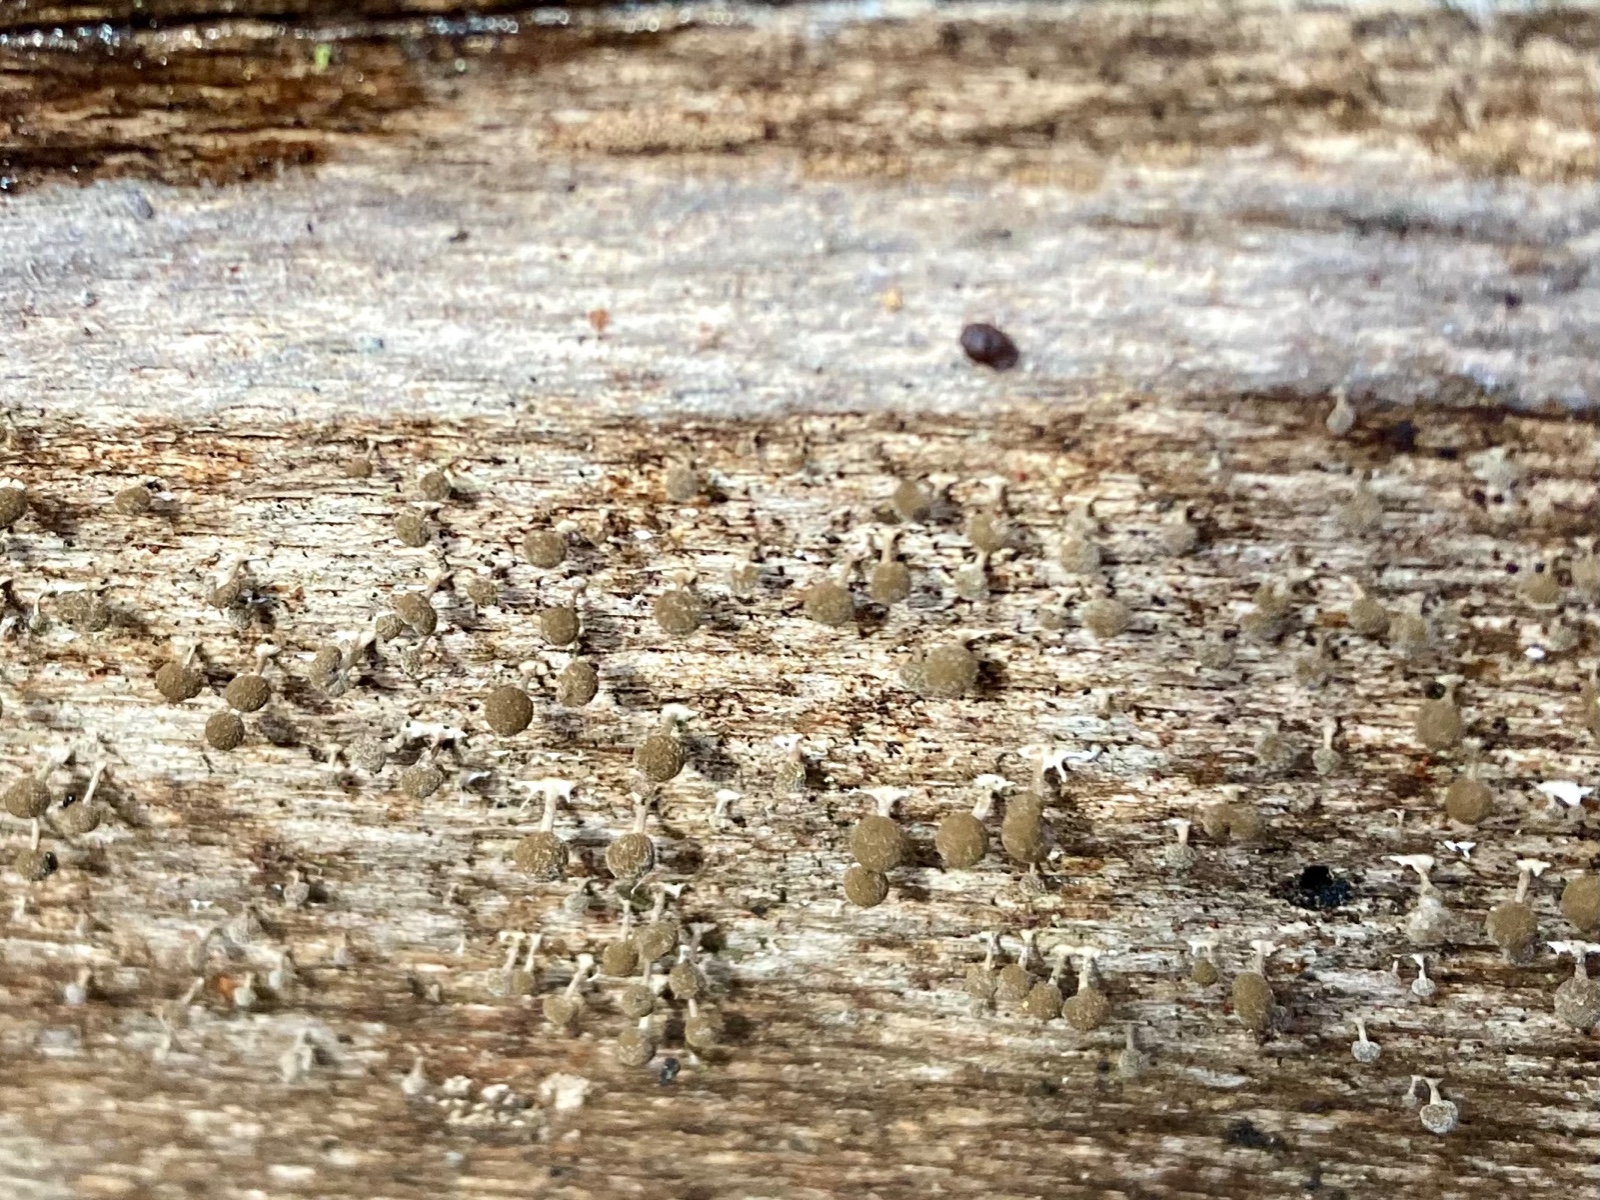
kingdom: Fungi
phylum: Basidiomycota
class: Atractiellomycetes
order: Atractiellales
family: Phleogenaceae
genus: Phleogena
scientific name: Phleogena faginea
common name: pudderkølle
